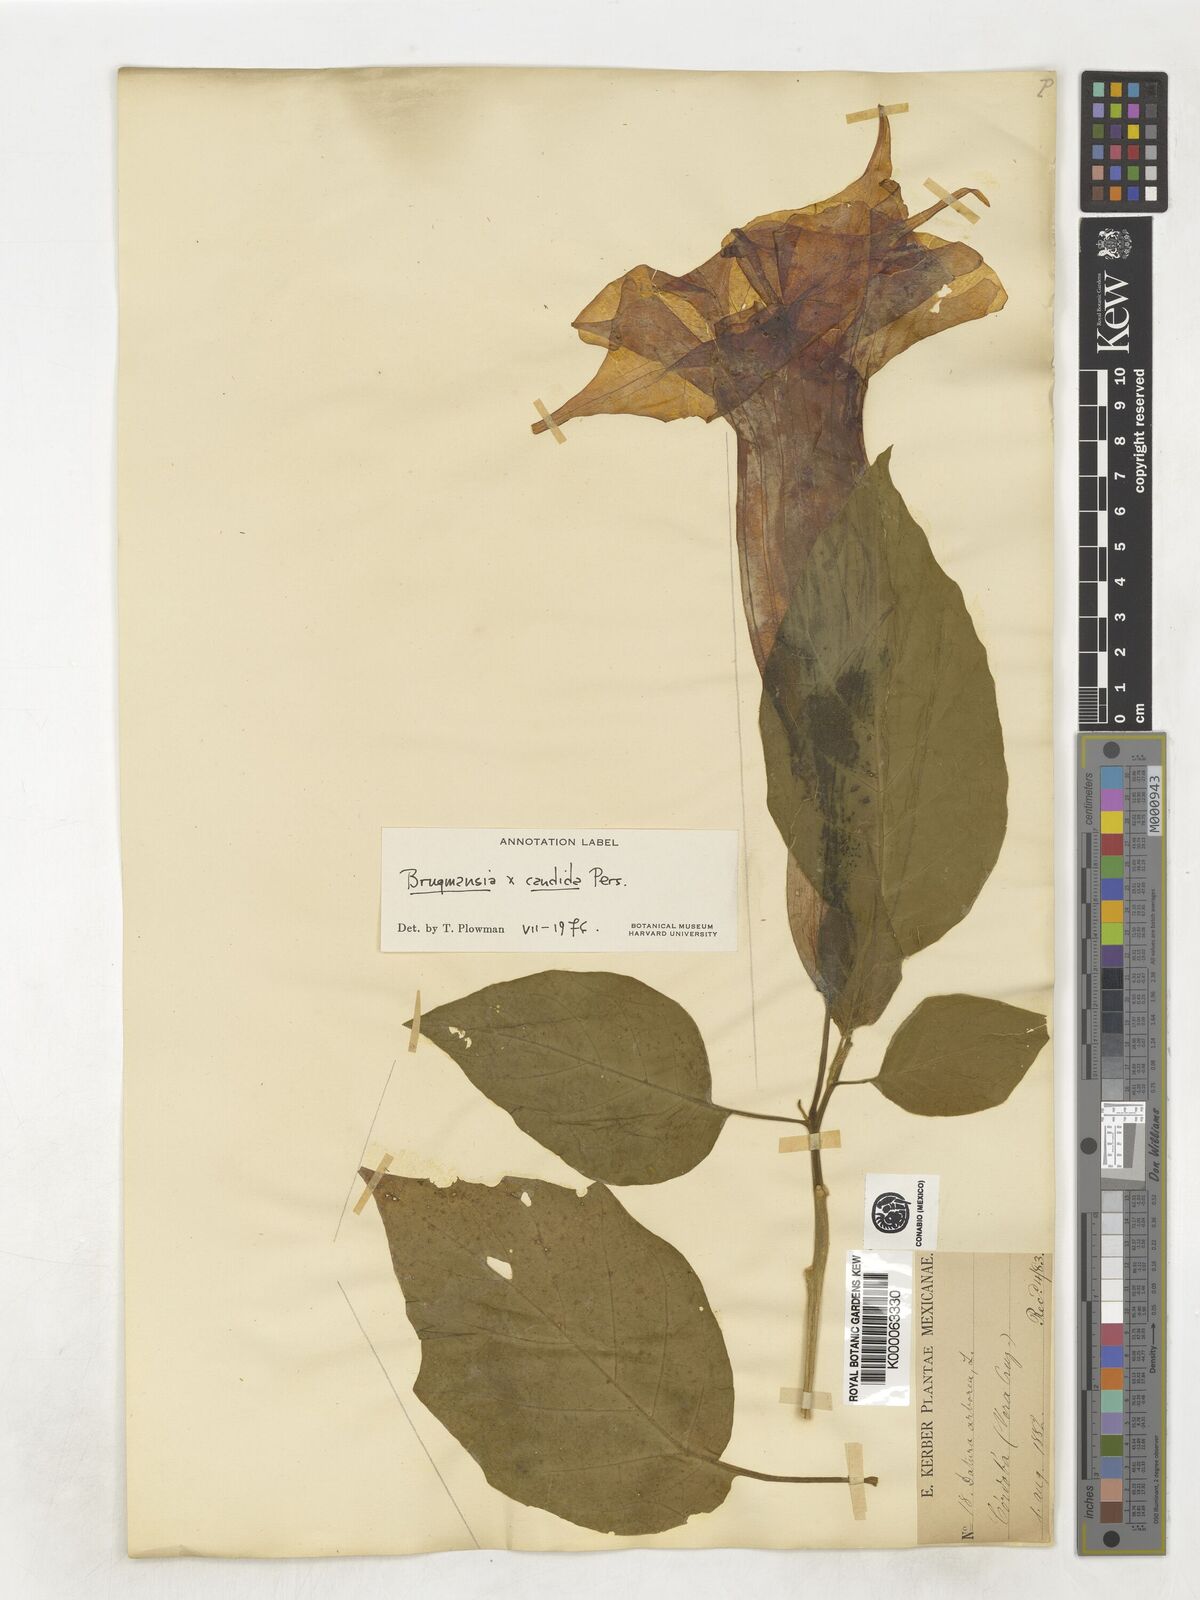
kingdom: Plantae
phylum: Tracheophyta
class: Magnoliopsida
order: Solanales
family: Solanaceae
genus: Brugmansia
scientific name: Brugmansia candida
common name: Angel's-trumpet
